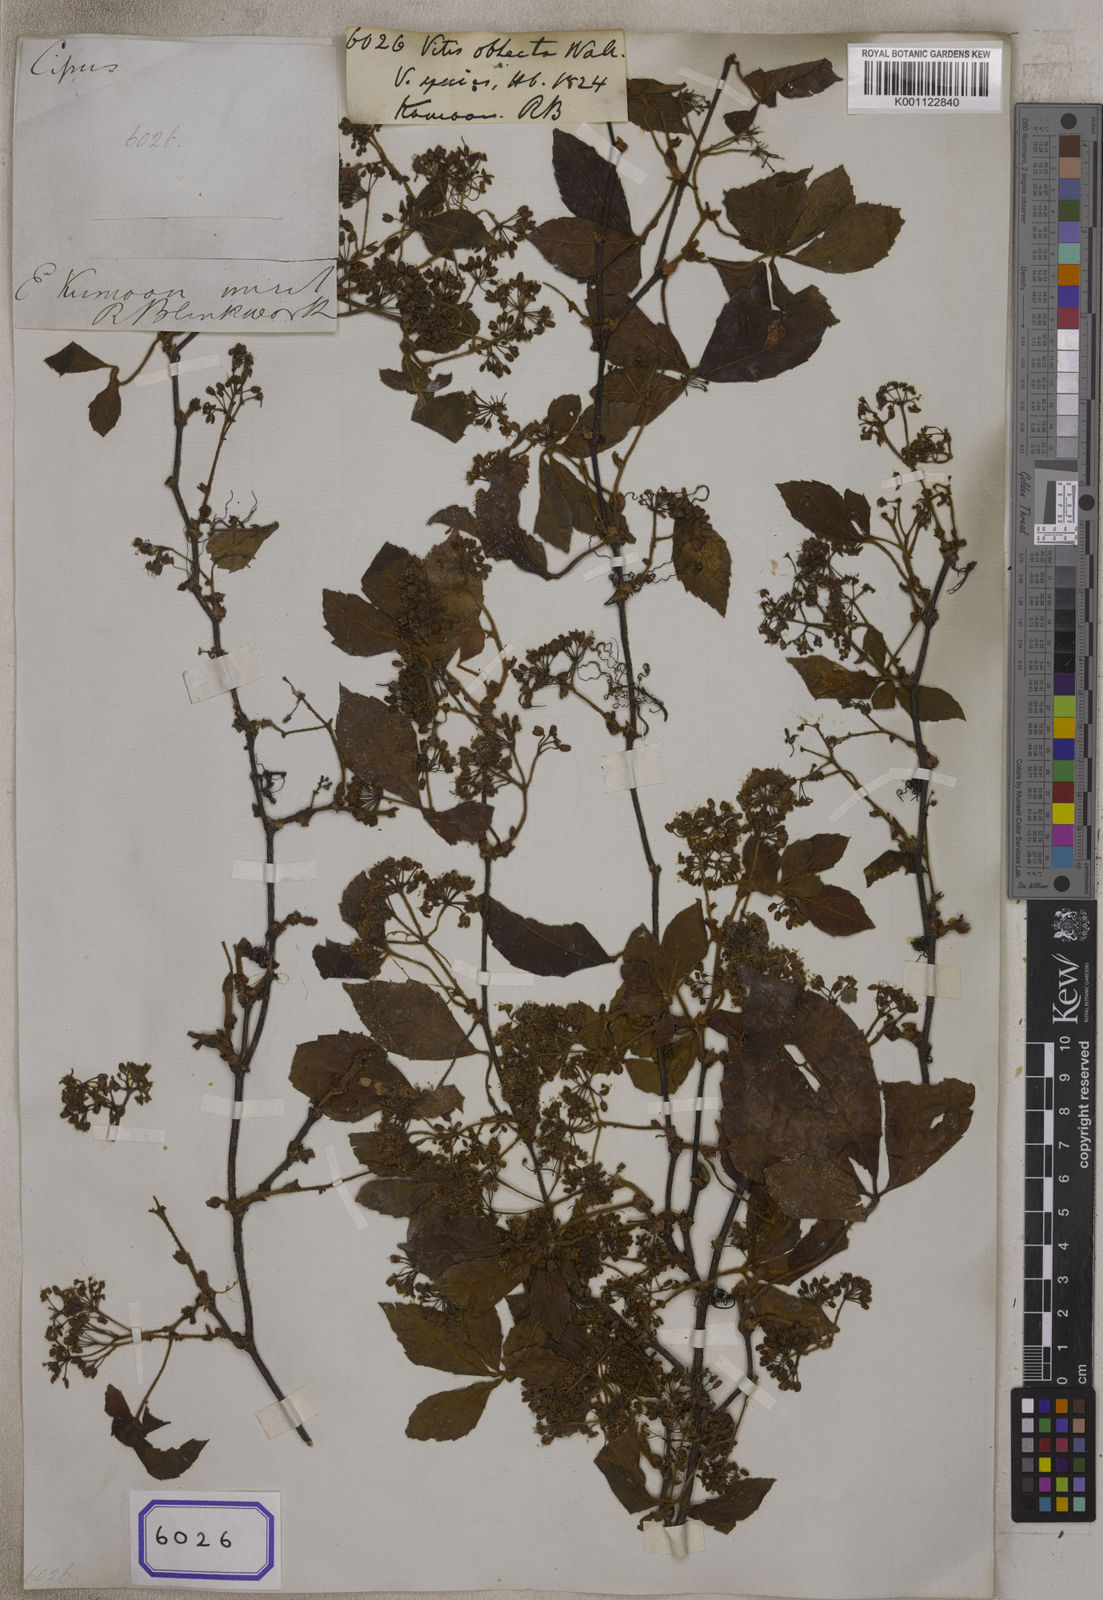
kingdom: Plantae
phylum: Tracheophyta
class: Magnoliopsida
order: Vitales
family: Vitaceae
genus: Vitis
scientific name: Vitis
